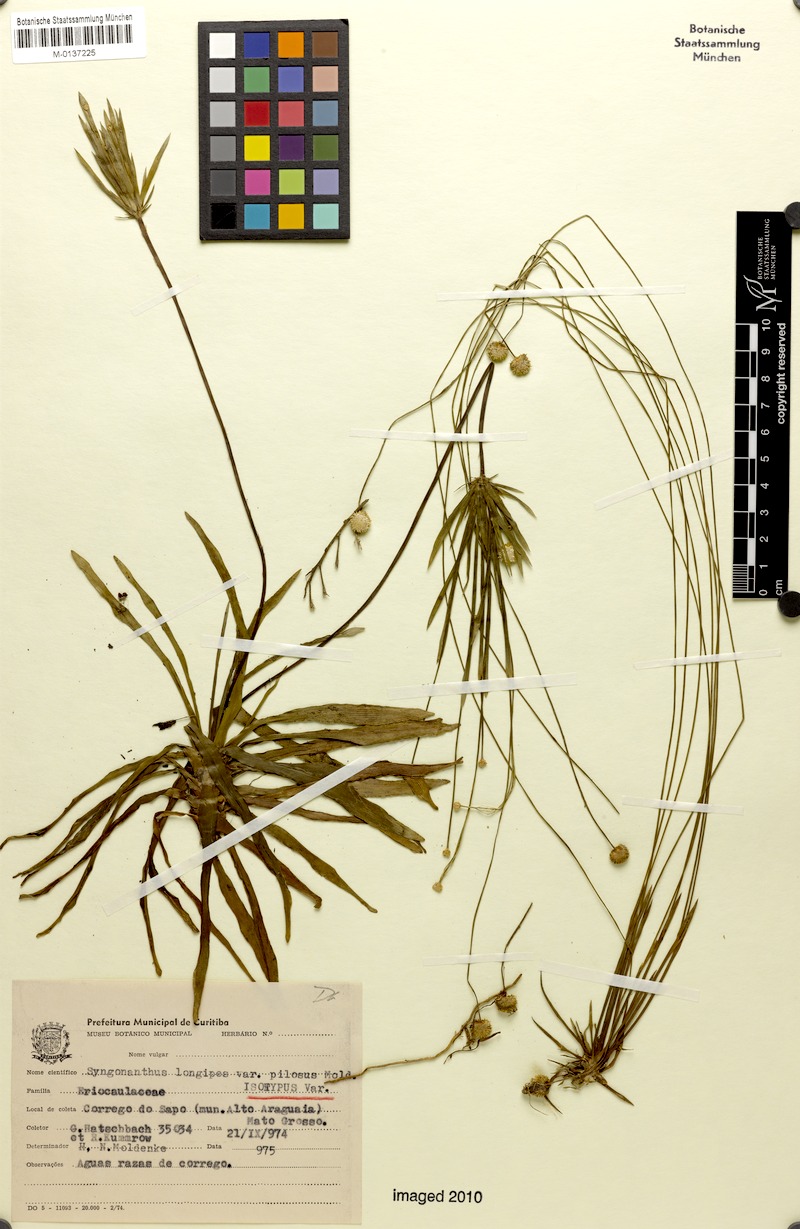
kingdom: Plantae
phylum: Tracheophyta
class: Liliopsida
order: Poales
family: Eriocaulaceae
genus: Syngonanthus
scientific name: Syngonanthus longipes
